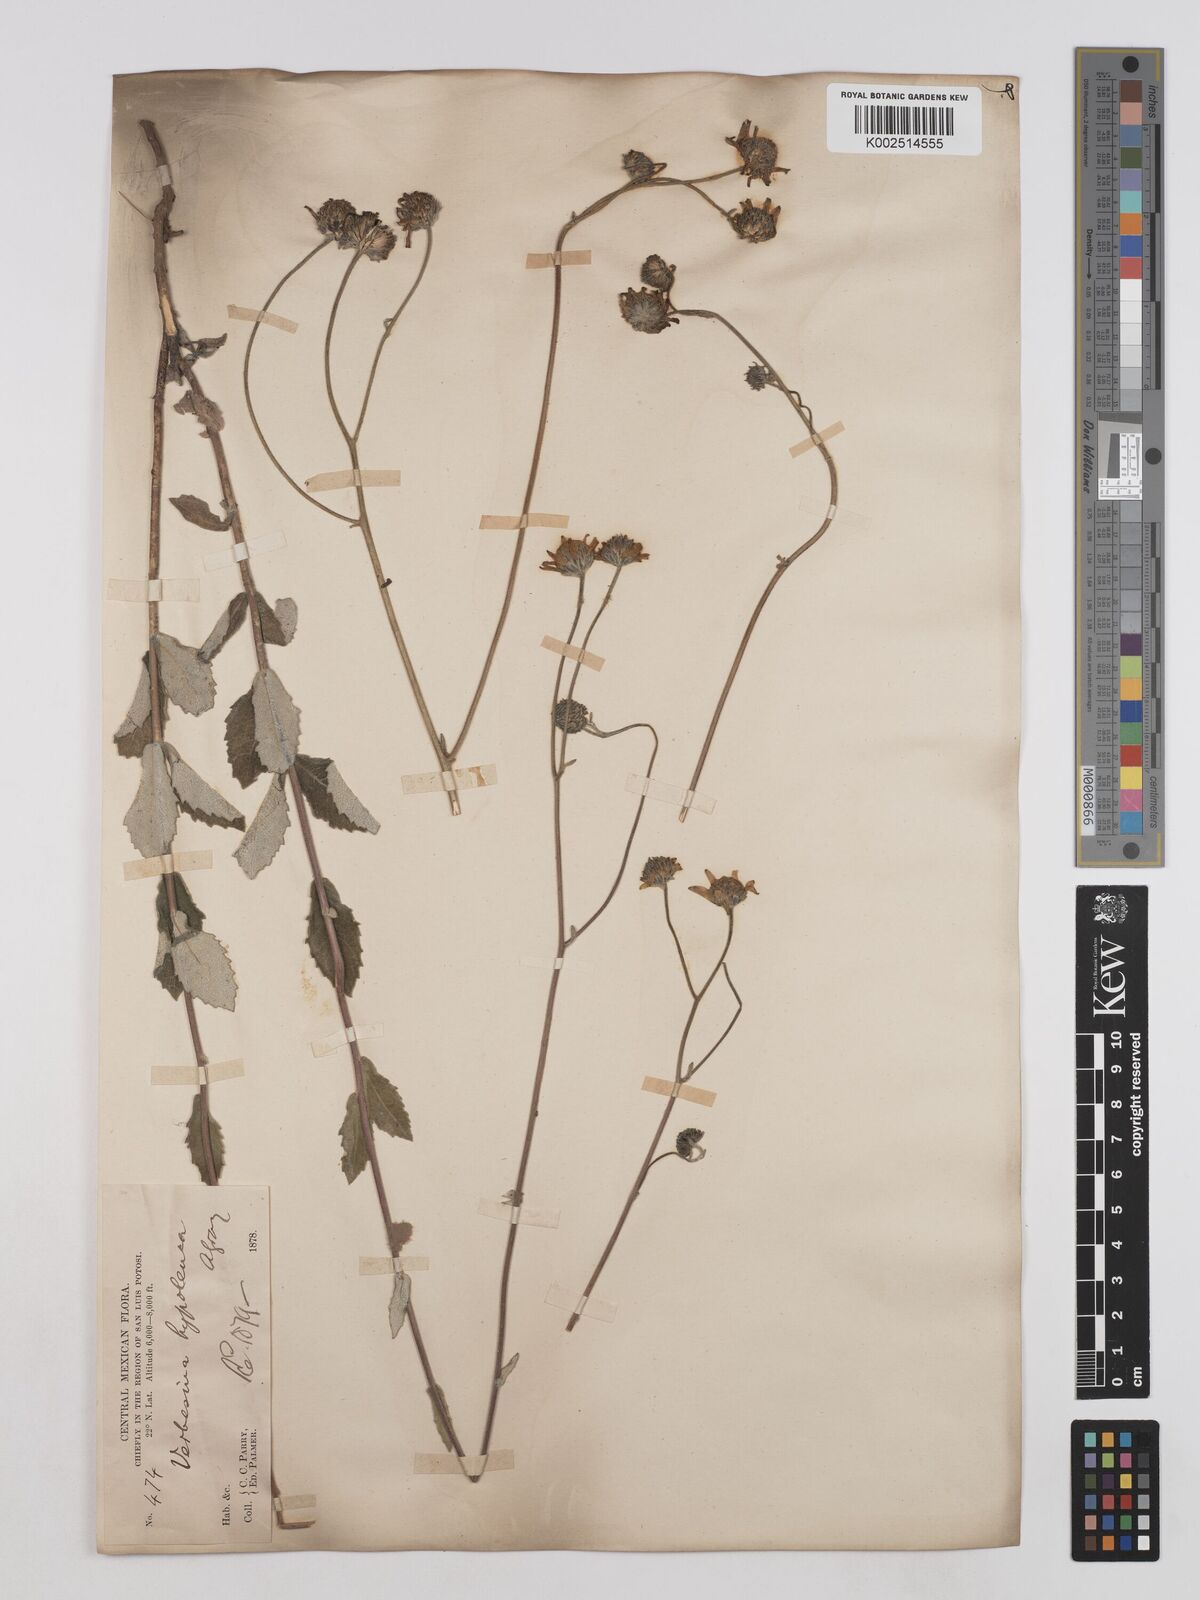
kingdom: Plantae
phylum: Tracheophyta
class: Magnoliopsida
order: Asterales
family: Asteraceae
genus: Verbesina
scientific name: Verbesina mollis
